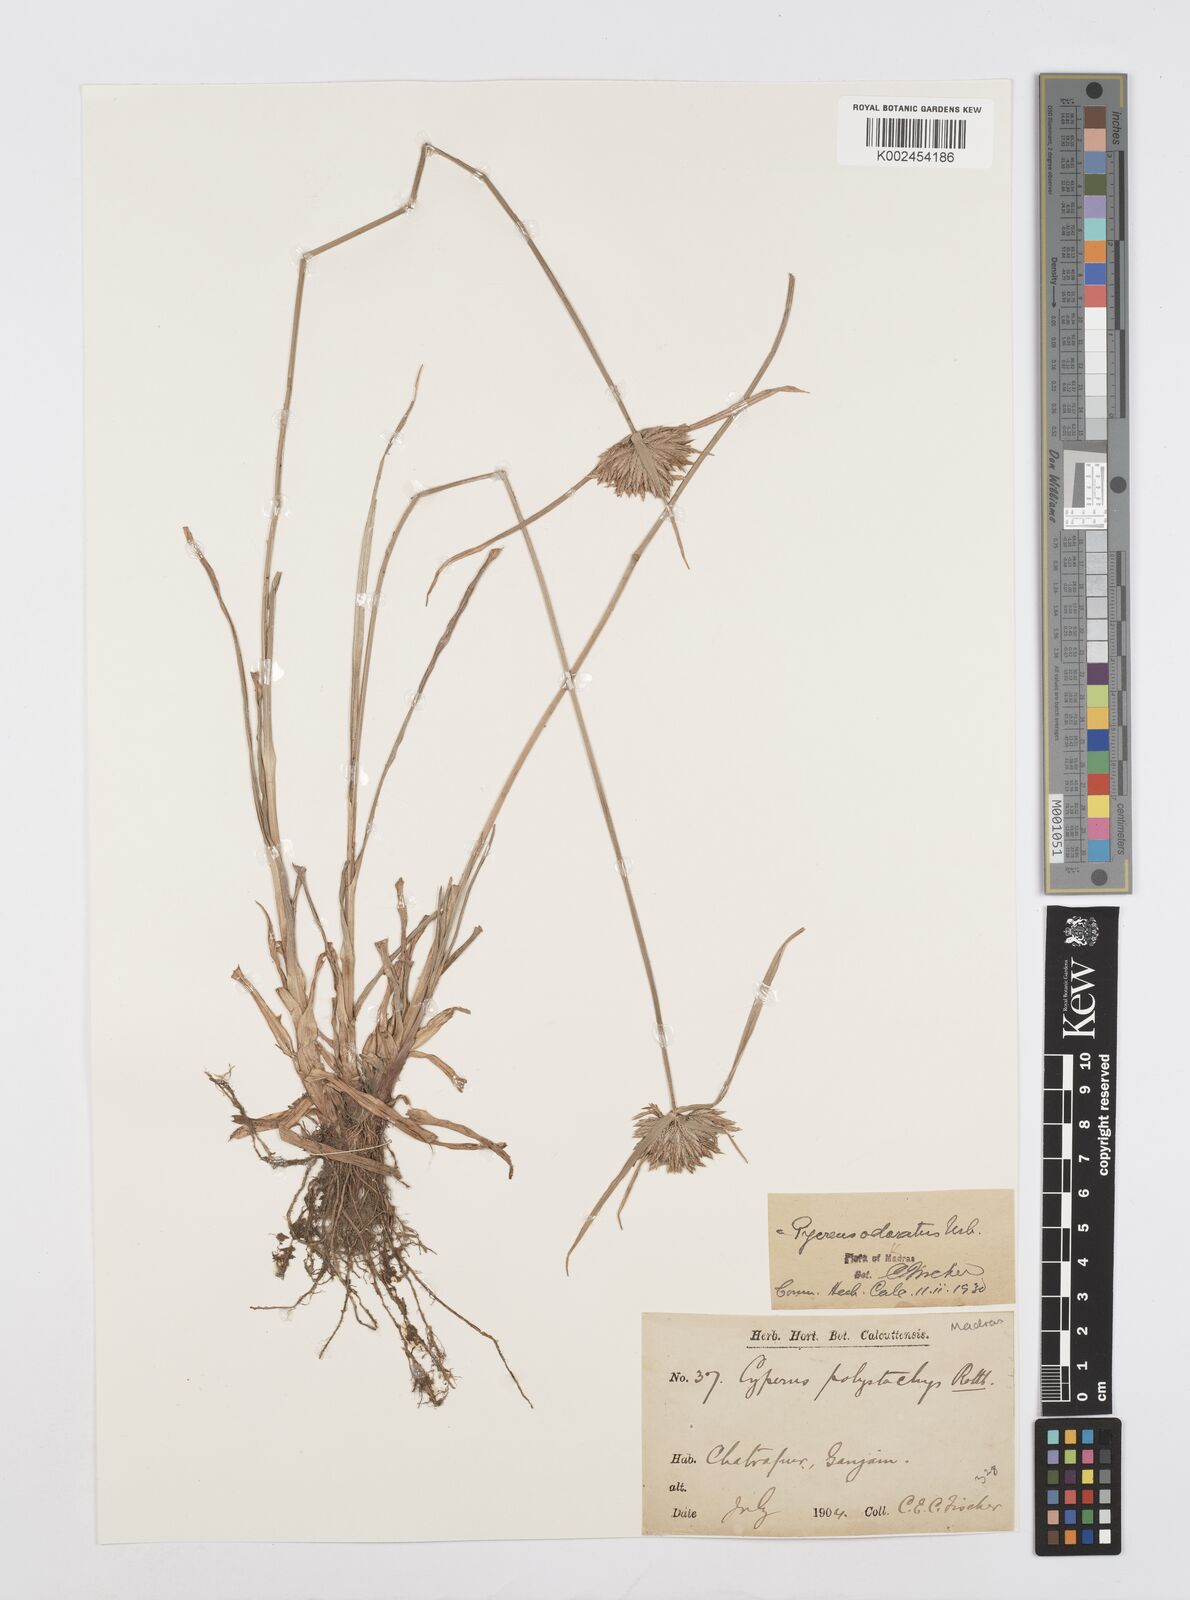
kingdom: Plantae
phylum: Tracheophyta
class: Liliopsida
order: Poales
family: Cyperaceae
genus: Cyperus
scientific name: Cyperus polystachyos
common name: Bunchy flat sedge
